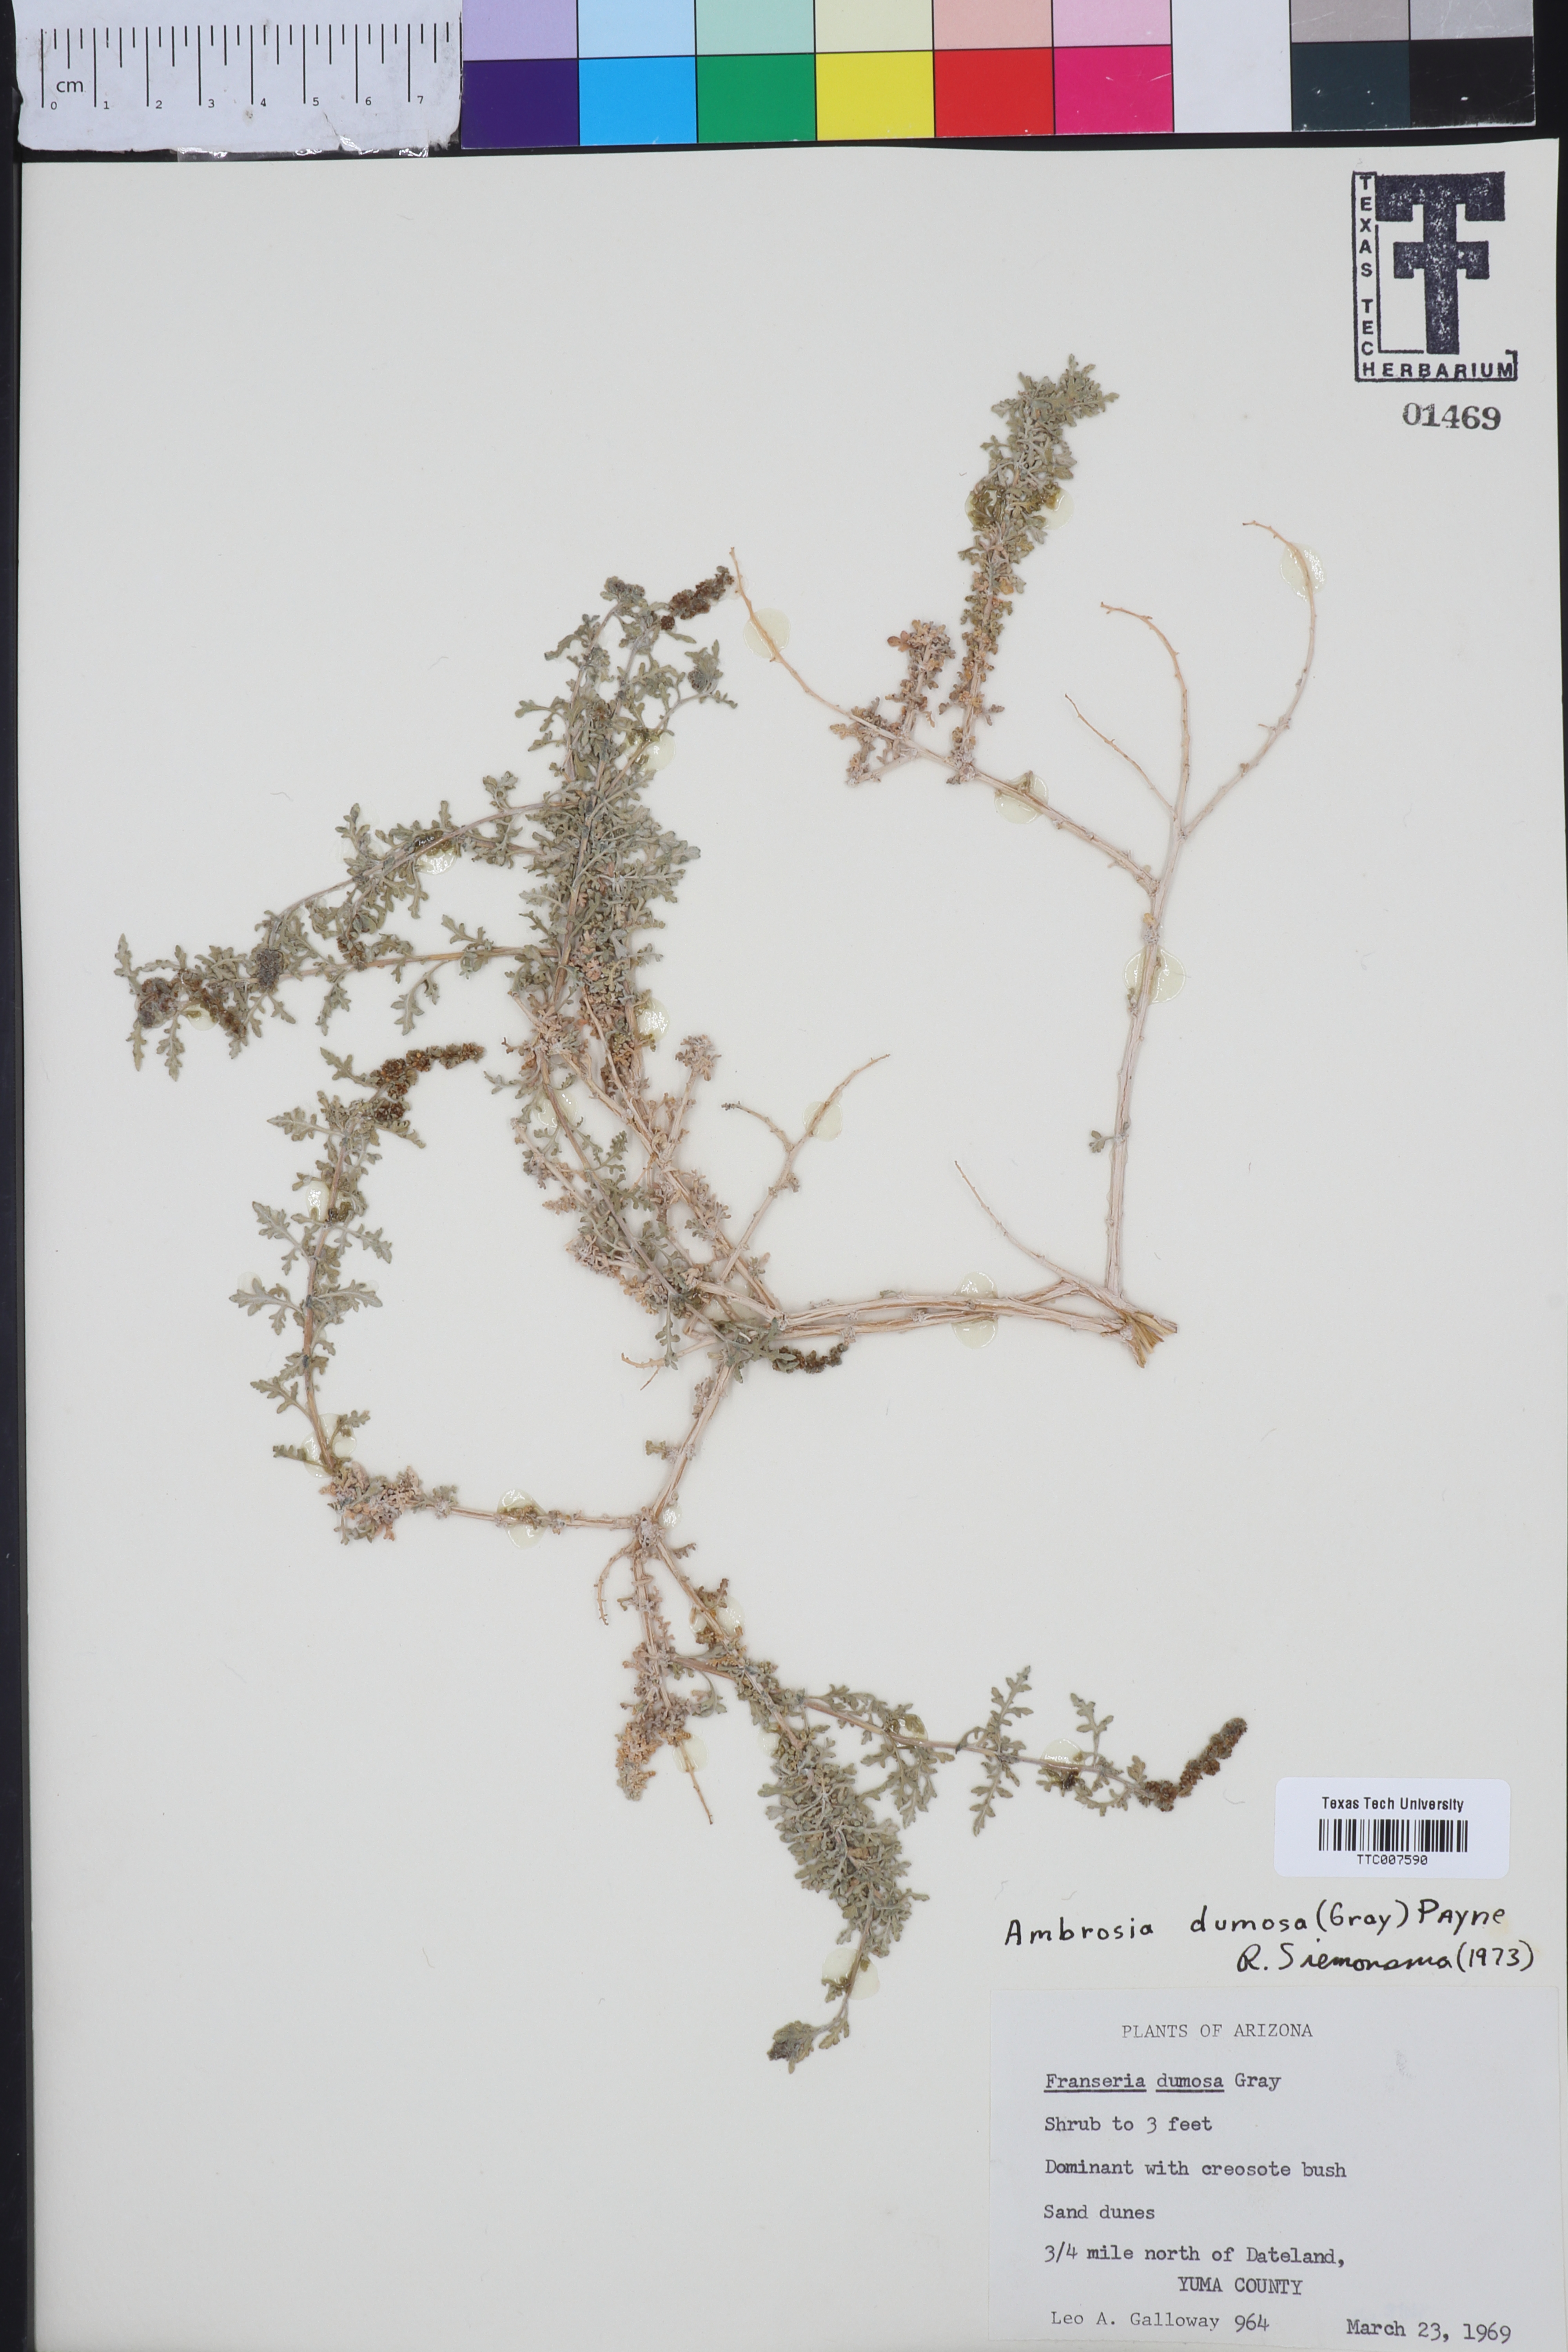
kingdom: Plantae
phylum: Tracheophyta
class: Magnoliopsida
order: Asterales
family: Asteraceae
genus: Ambrosia
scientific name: Ambrosia
